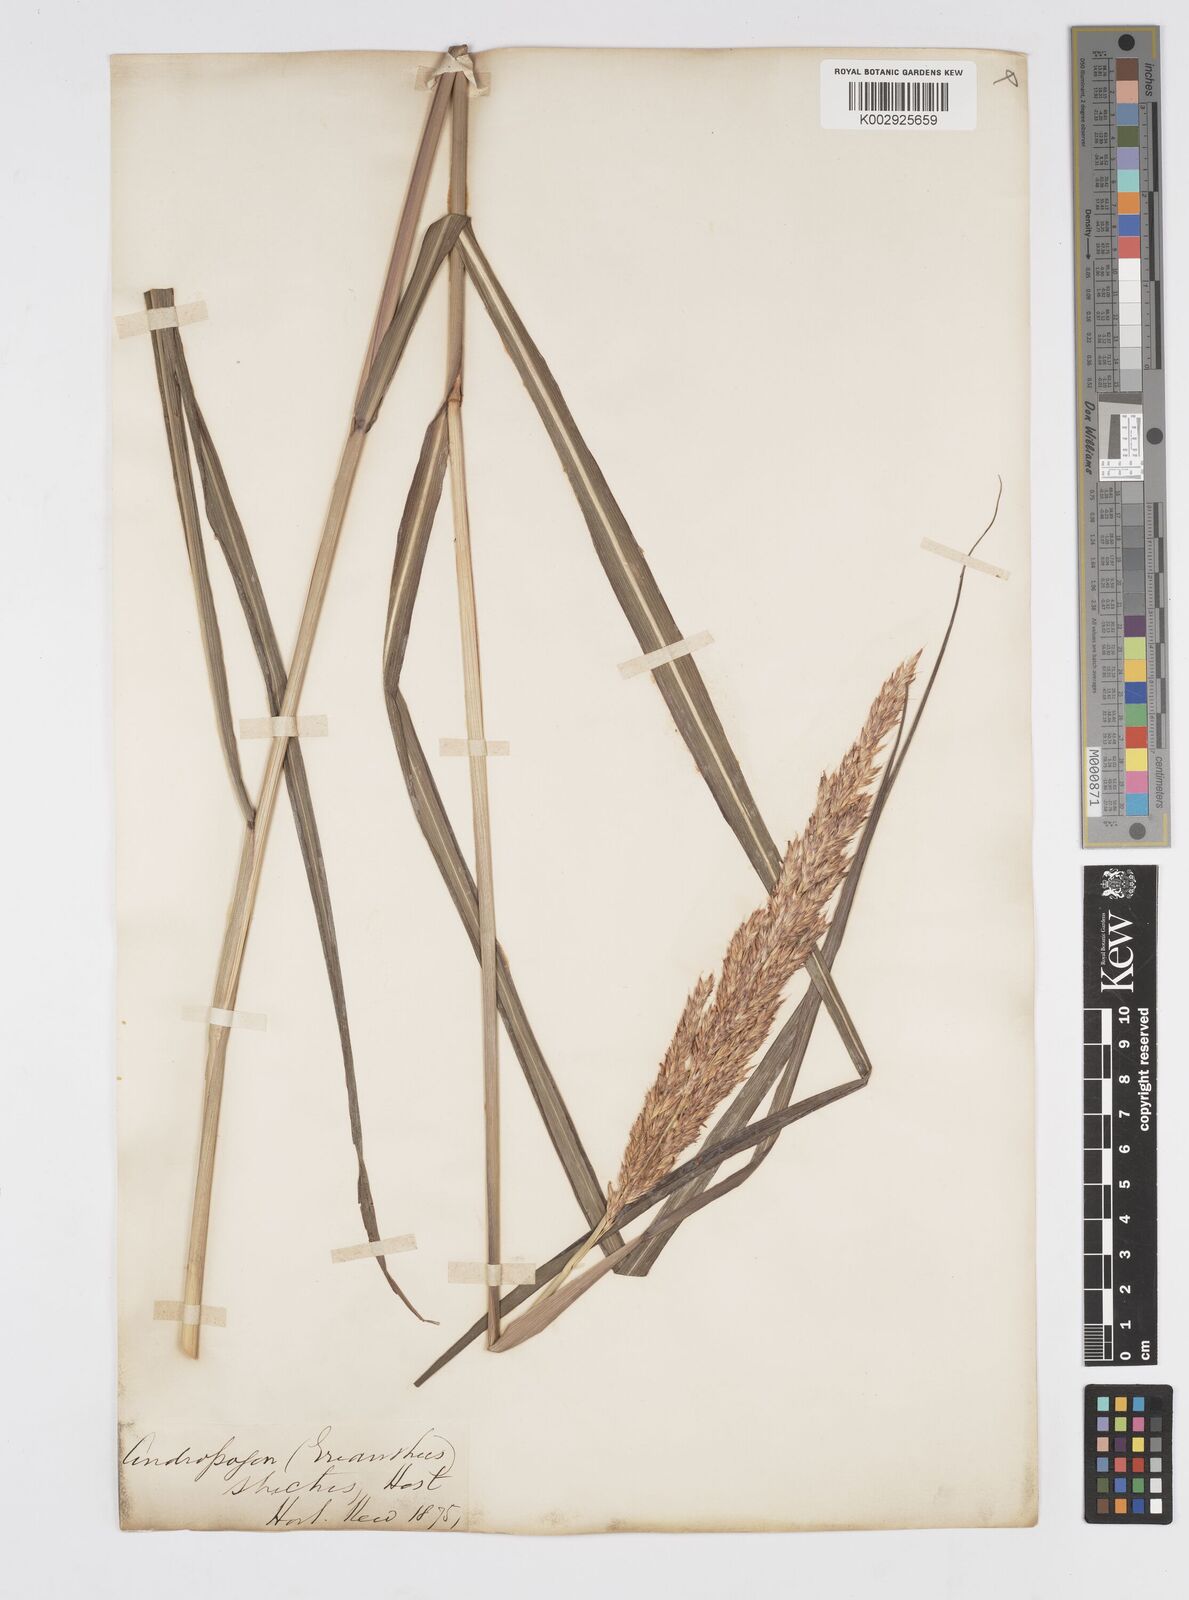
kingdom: Plantae
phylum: Tracheophyta
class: Liliopsida
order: Poales
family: Poaceae
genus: Tripidium
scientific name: Tripidium strictum
